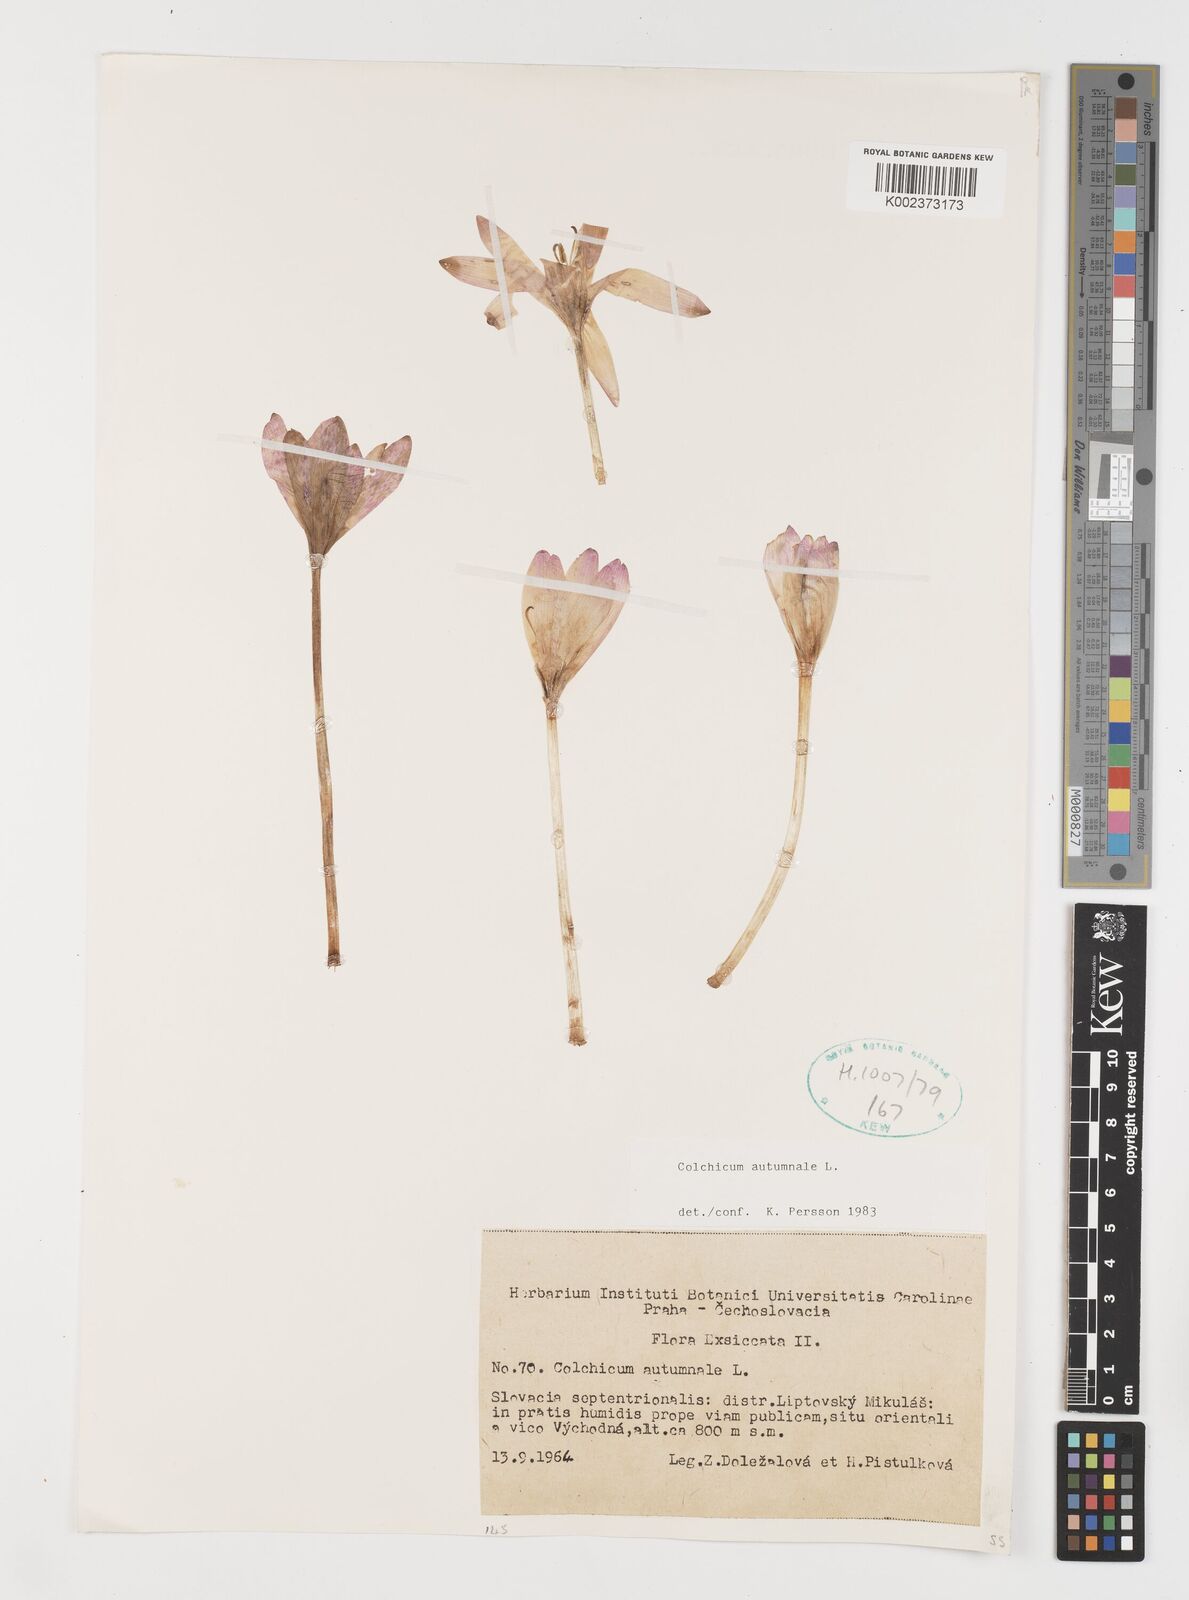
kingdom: Plantae
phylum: Tracheophyta
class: Liliopsida
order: Liliales
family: Colchicaceae
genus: Colchicum
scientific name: Colchicum autumnale
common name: Autumn crocus
